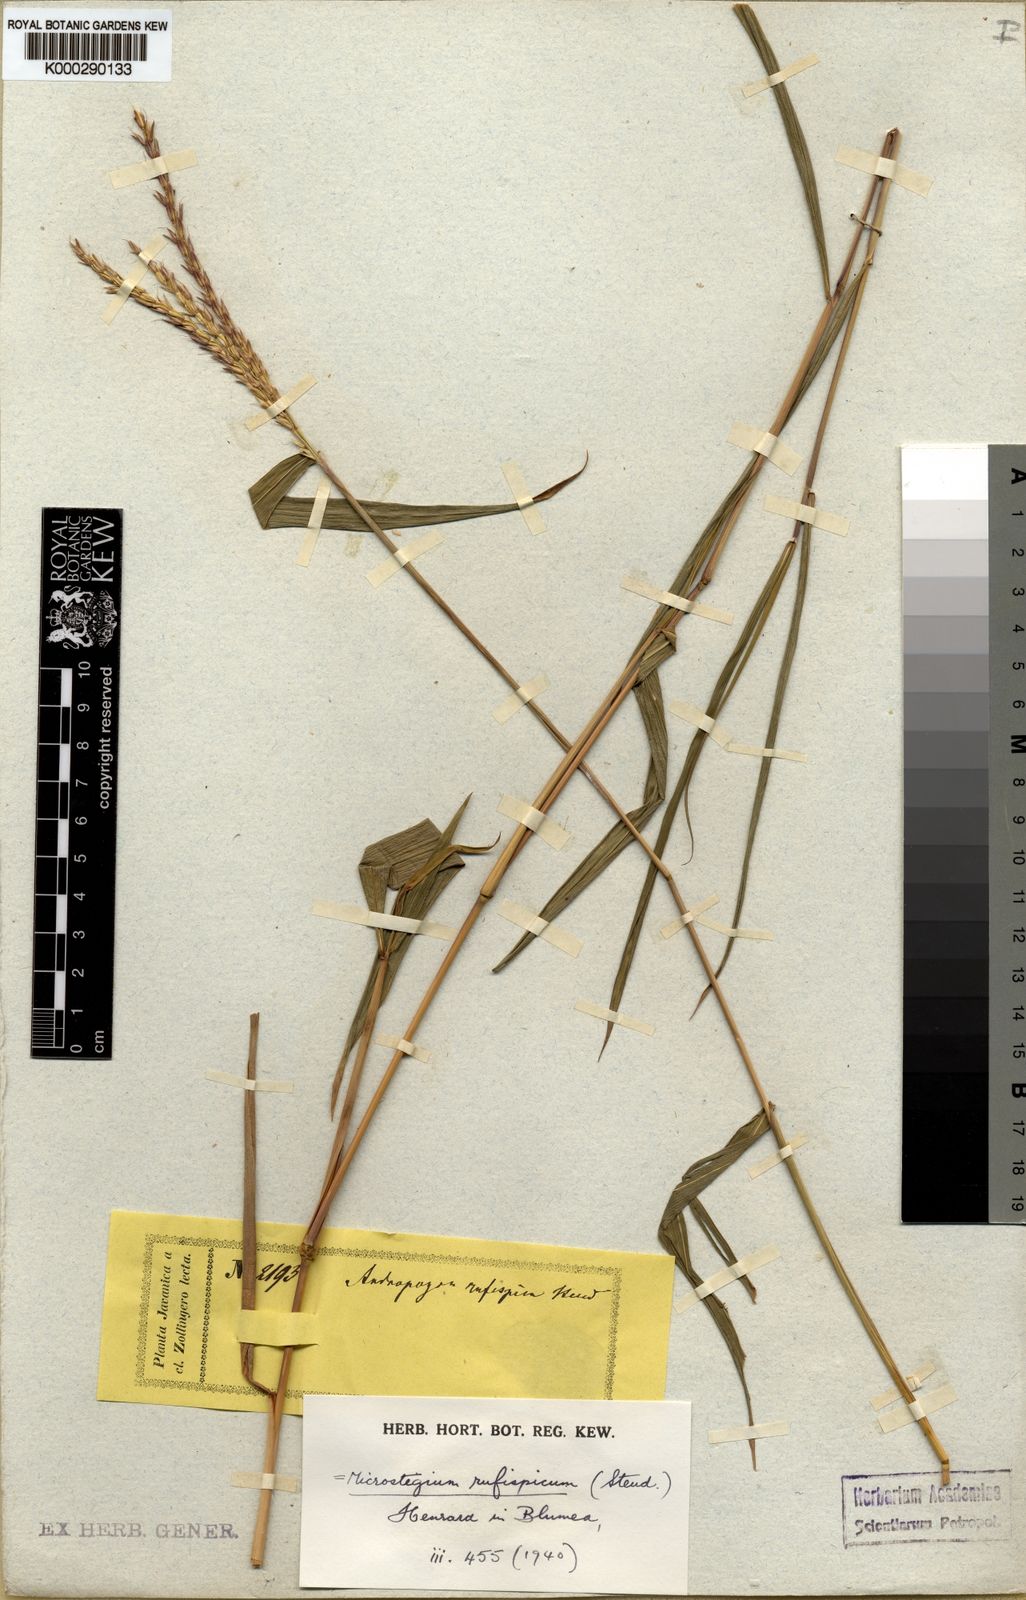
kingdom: Plantae
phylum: Tracheophyta
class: Liliopsida
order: Poales
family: Poaceae
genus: Microstegium
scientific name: Microstegium rufispicum
